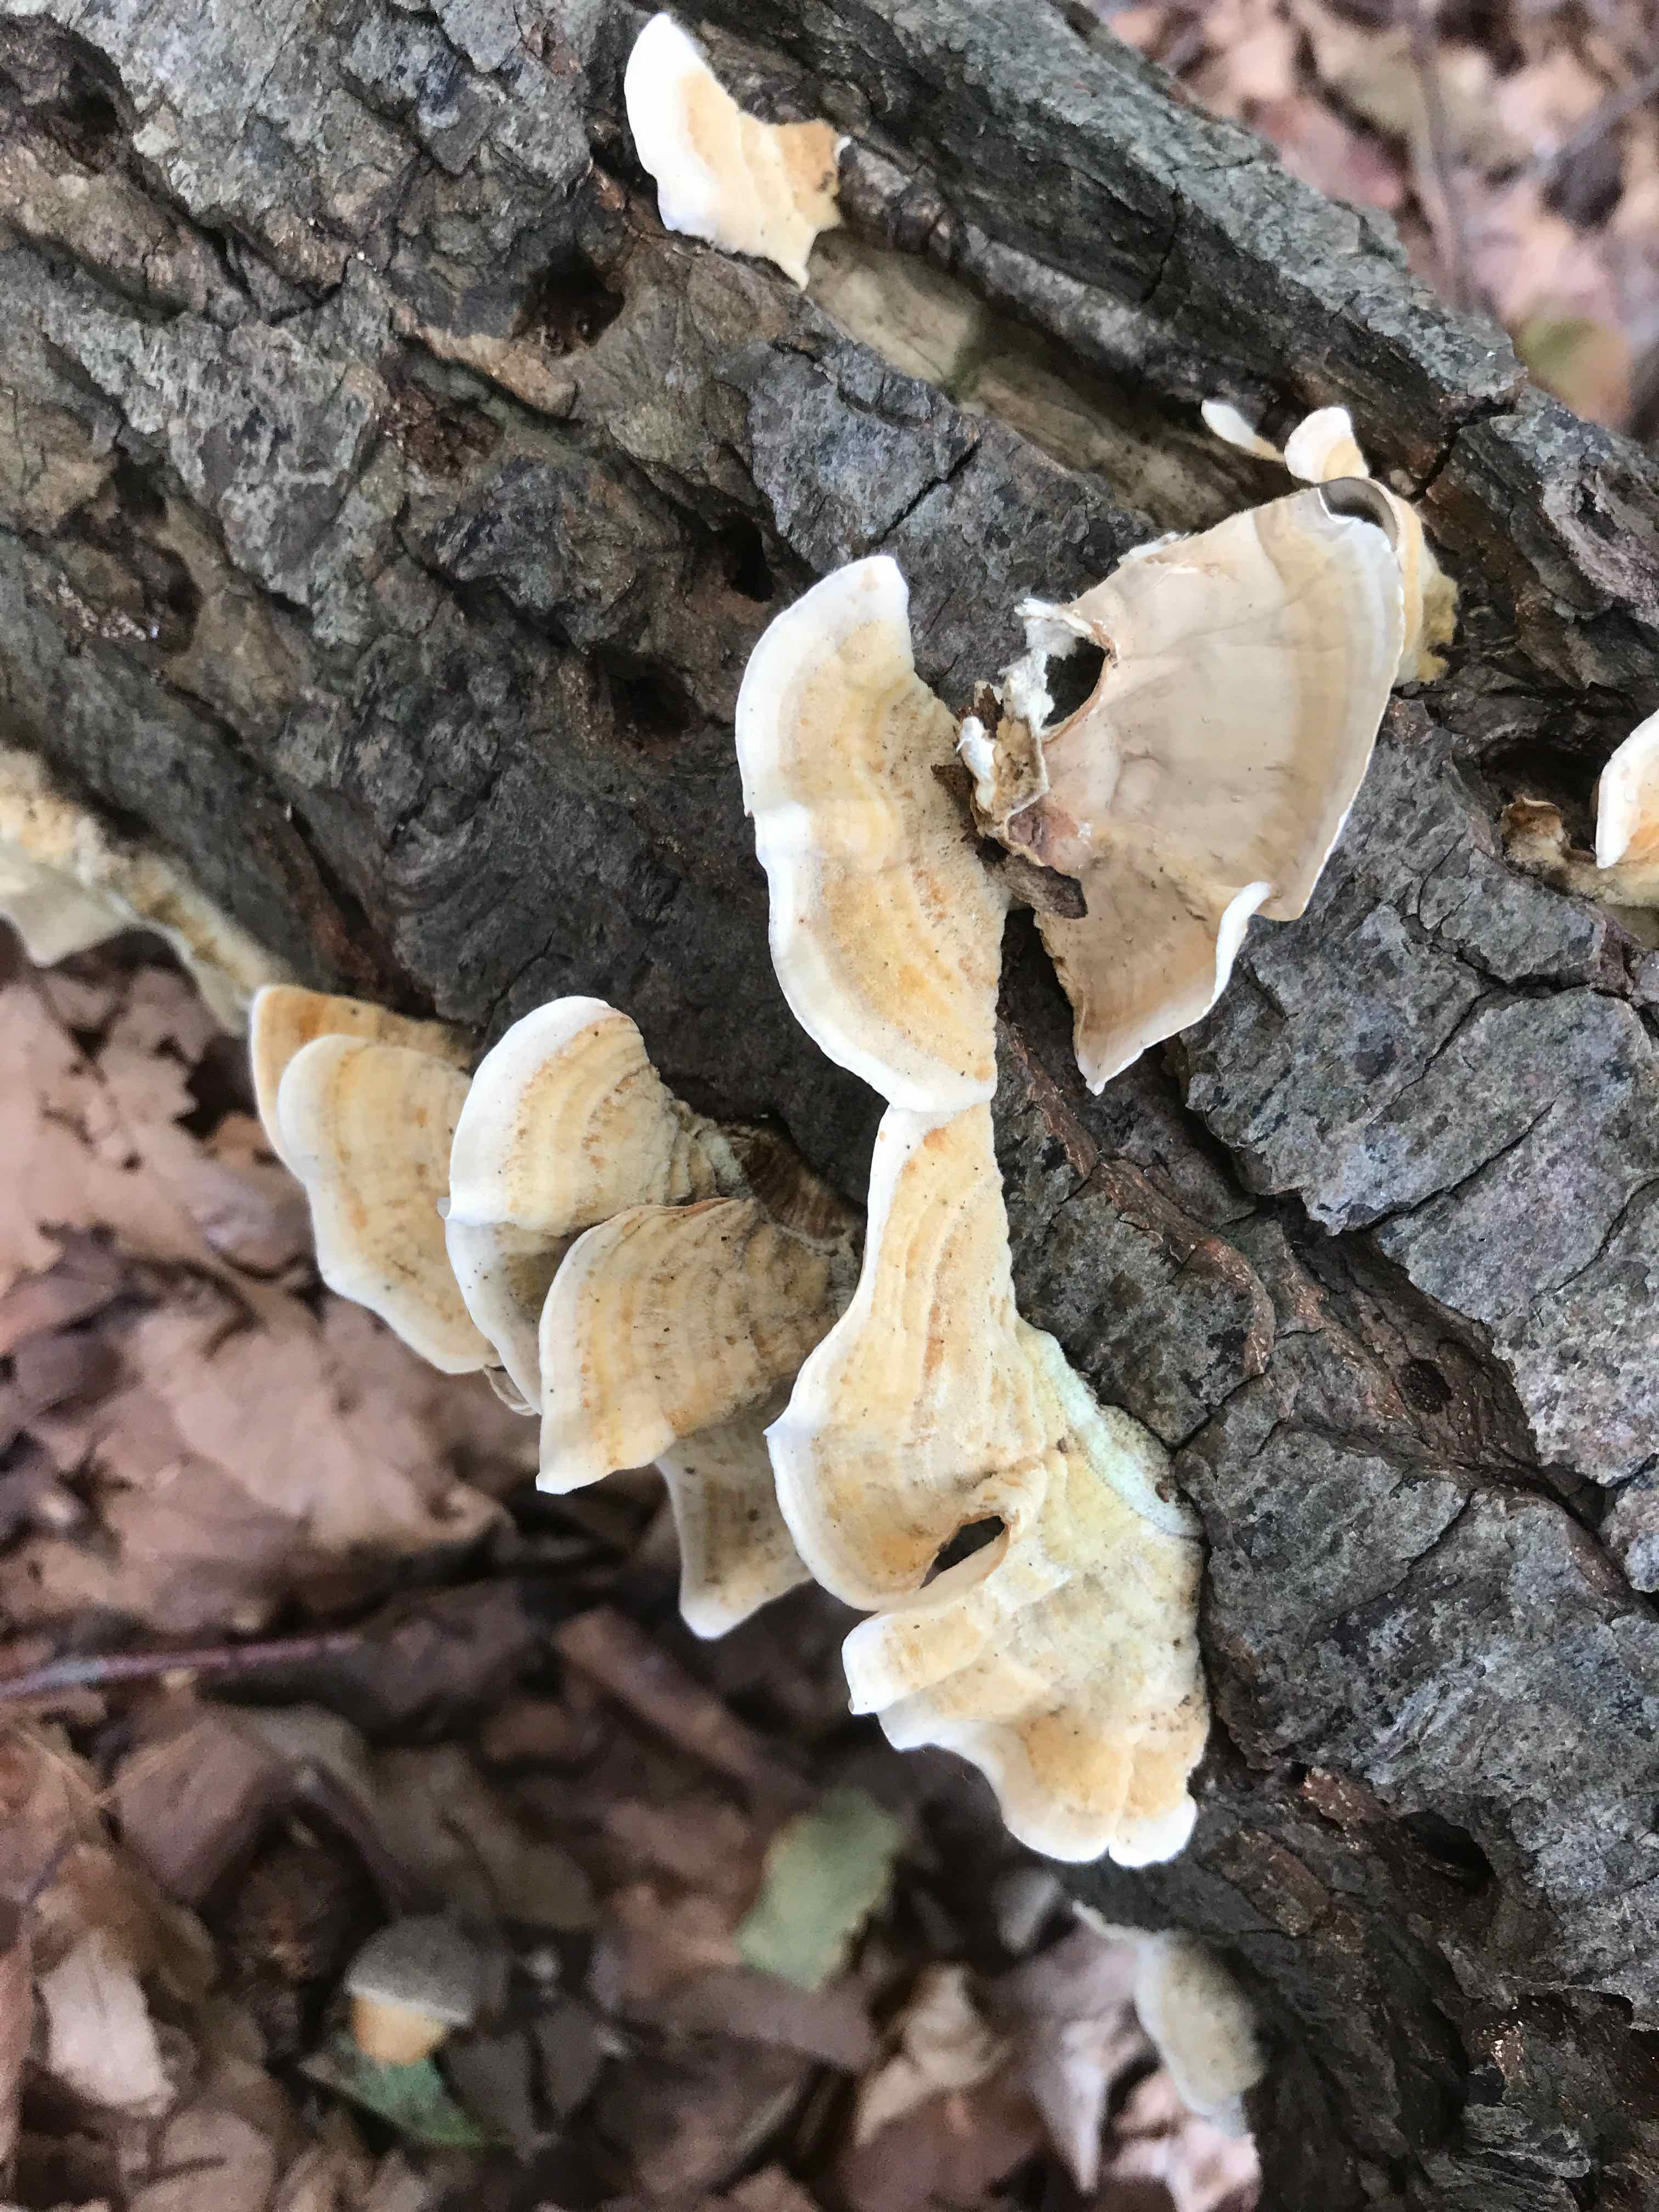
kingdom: Fungi
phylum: Basidiomycota
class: Agaricomycetes
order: Russulales
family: Stereaceae
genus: Stereum
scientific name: Stereum subtomentosum
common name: smuk lædersvamp
